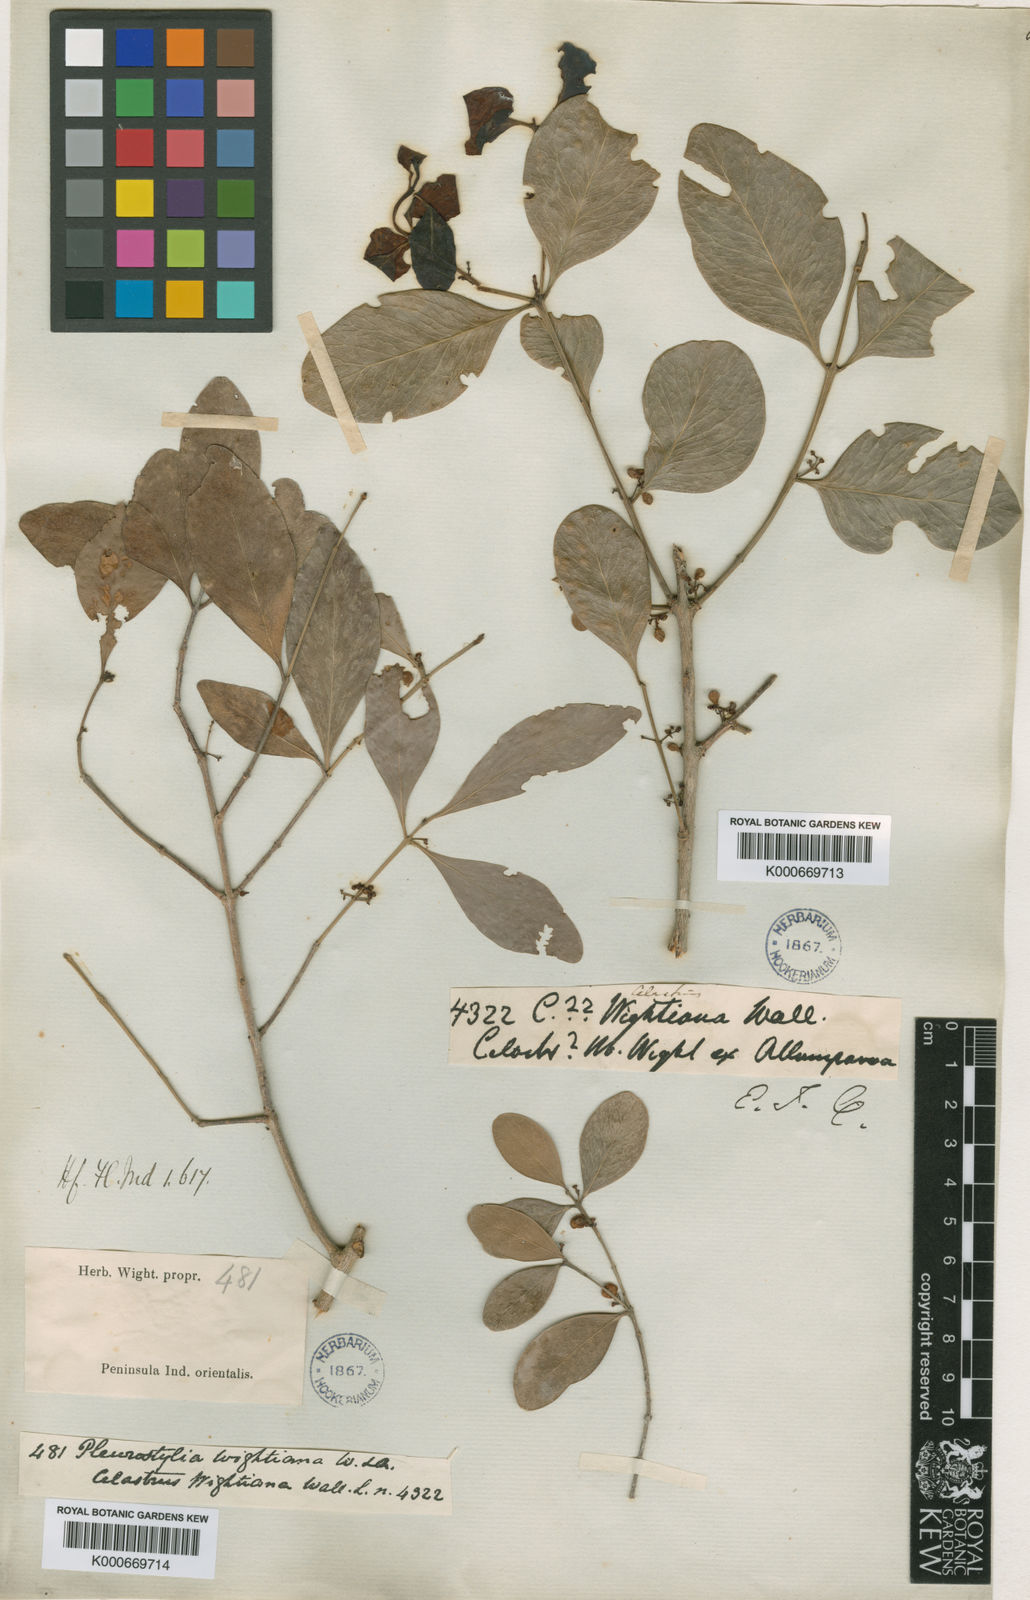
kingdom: Plantae
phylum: Tracheophyta
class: Magnoliopsida
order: Celastrales
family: Celastraceae
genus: Pleurostylia
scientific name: Pleurostylia opposita
